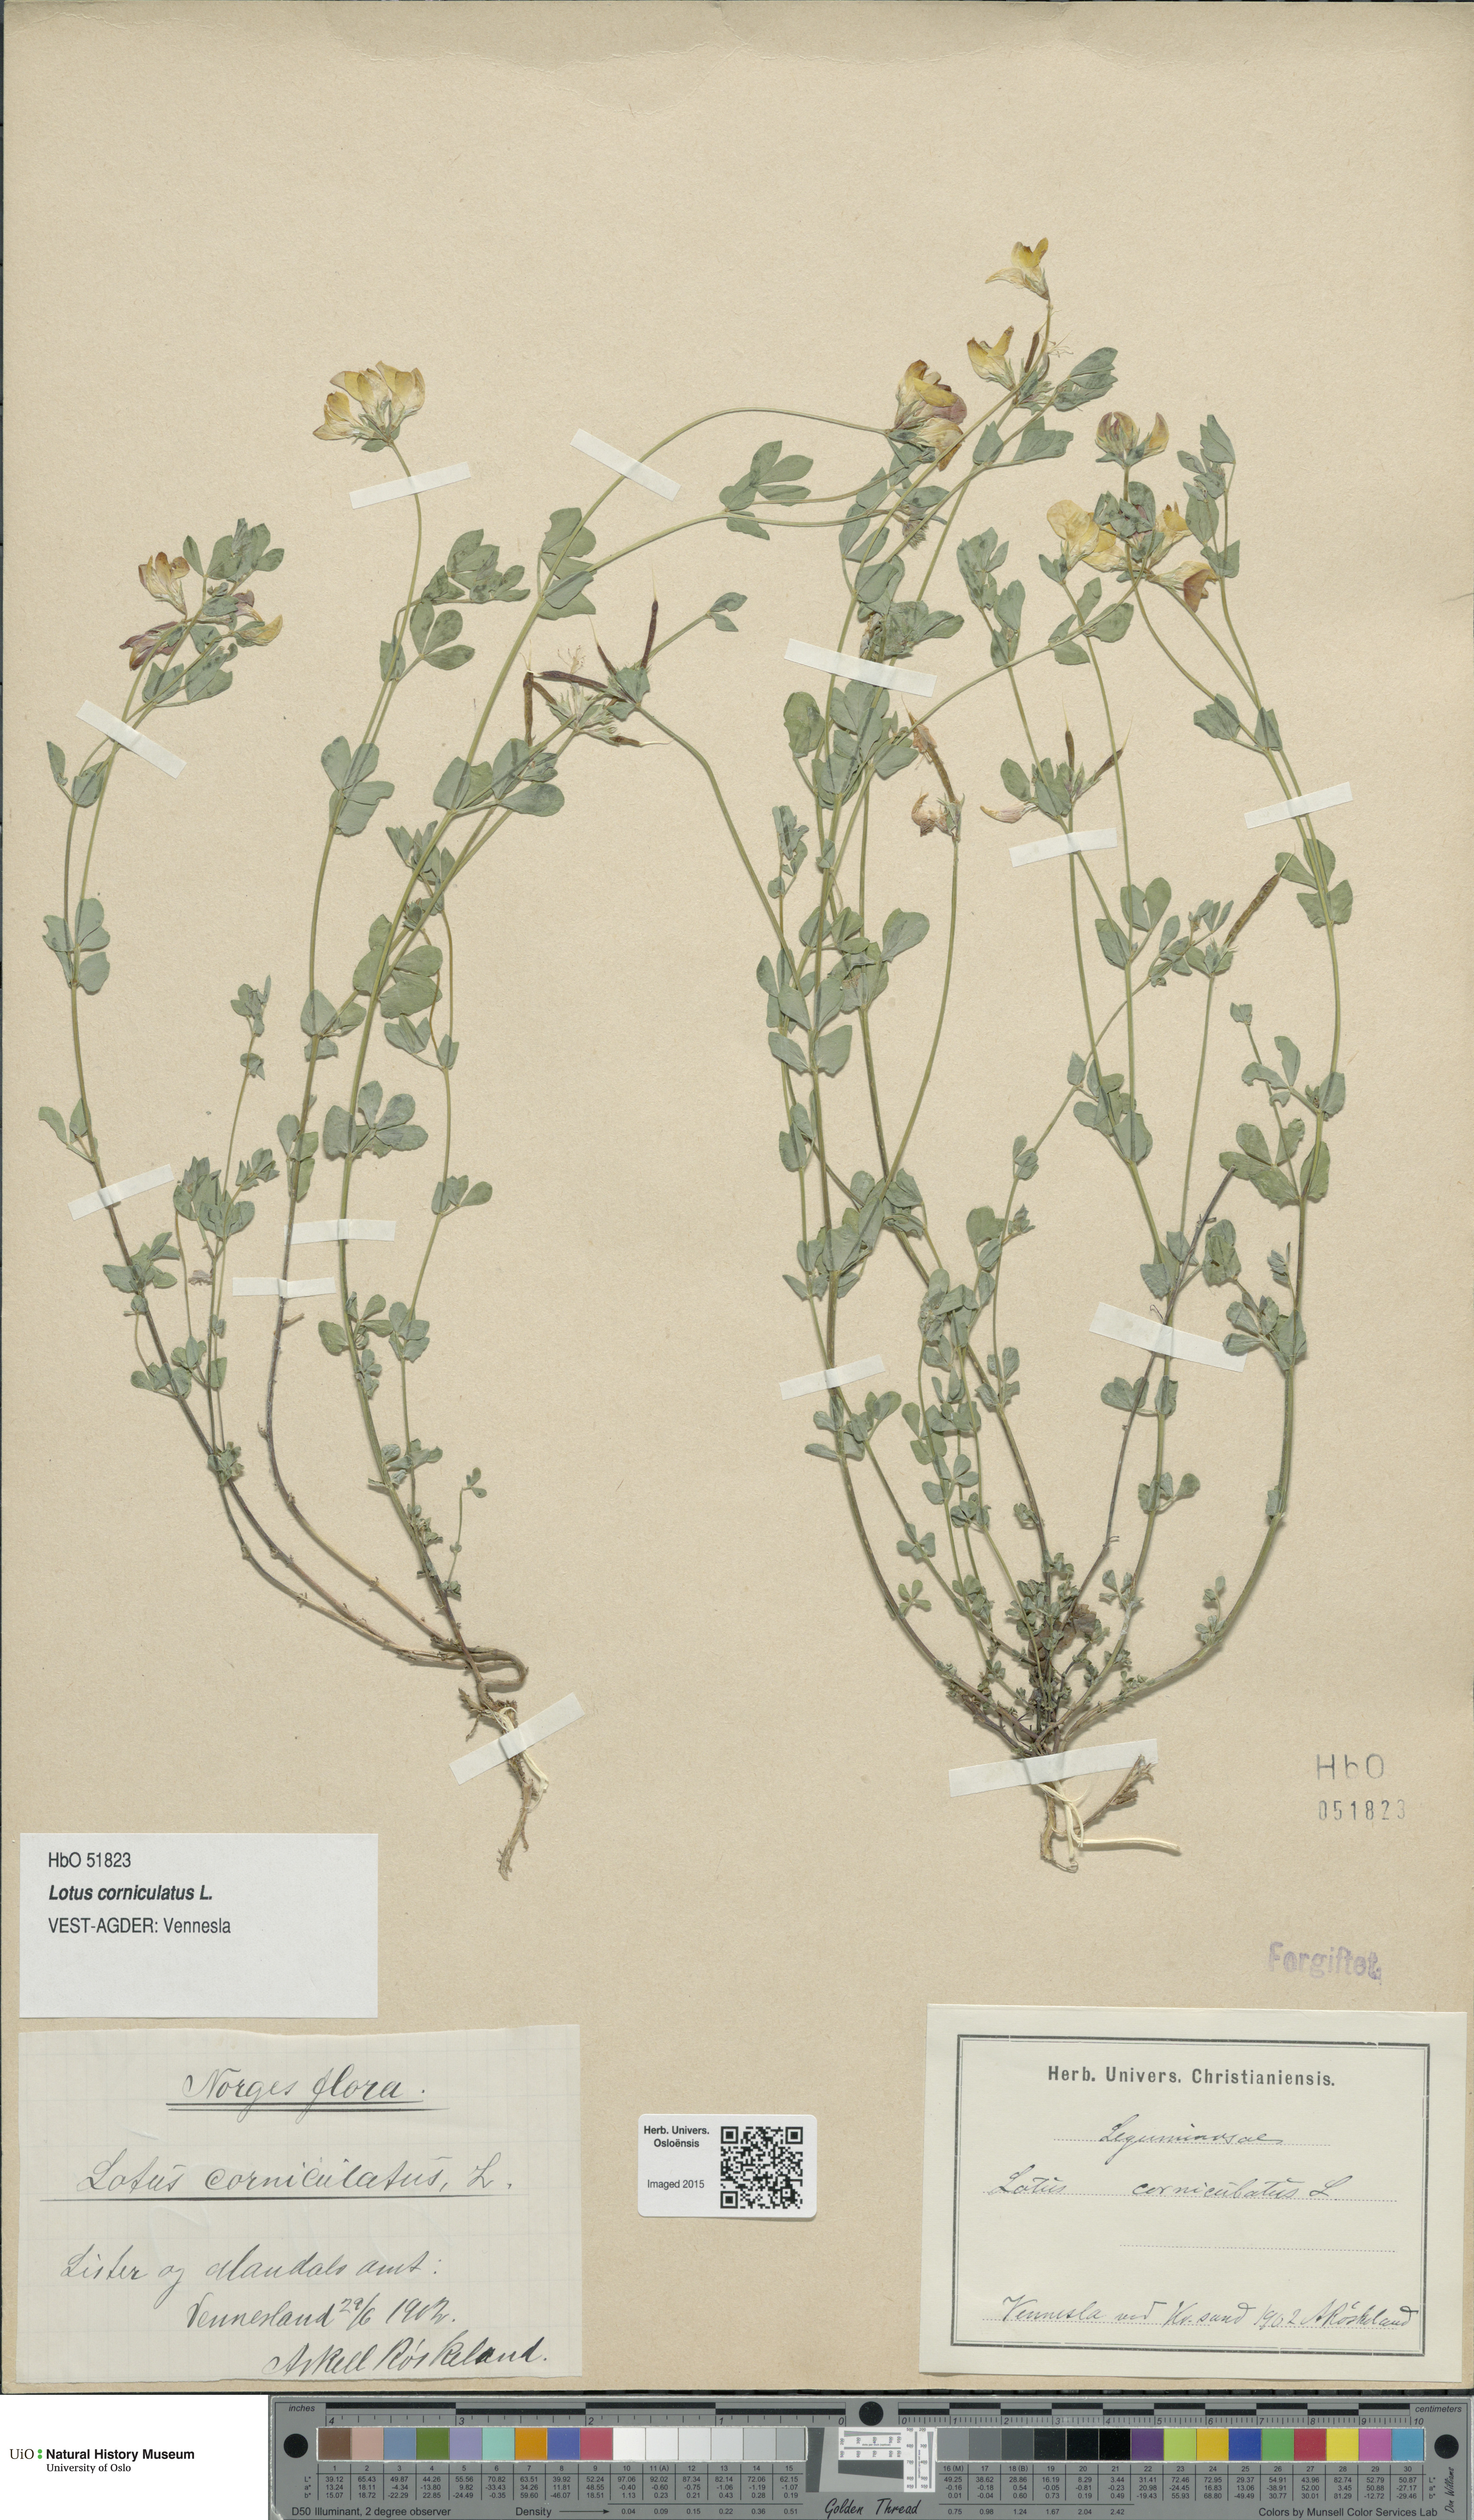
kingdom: Plantae
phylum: Tracheophyta
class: Magnoliopsida
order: Fabales
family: Fabaceae
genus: Lotus
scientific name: Lotus corniculatus
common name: Common bird's-foot-trefoil
